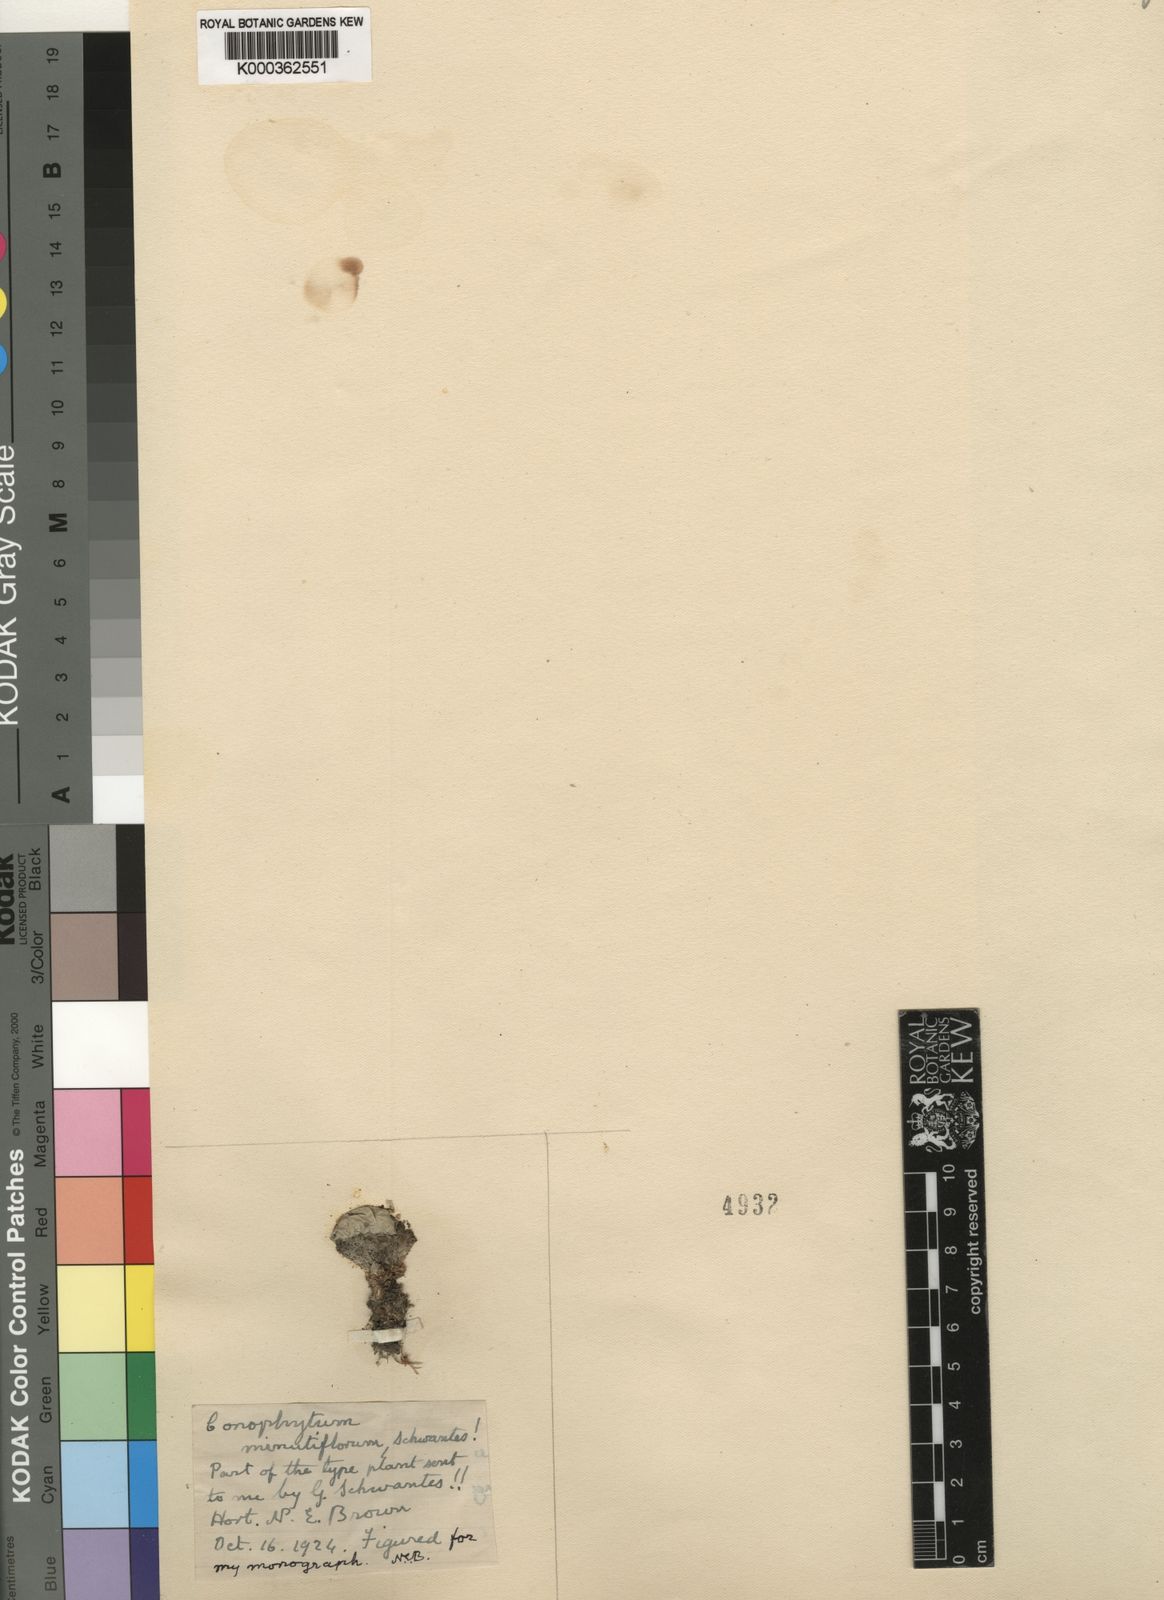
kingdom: Plantae
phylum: Tracheophyta
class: Magnoliopsida
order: Caryophyllales
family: Aizoaceae
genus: Conophytum
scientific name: Conophytum pageae
